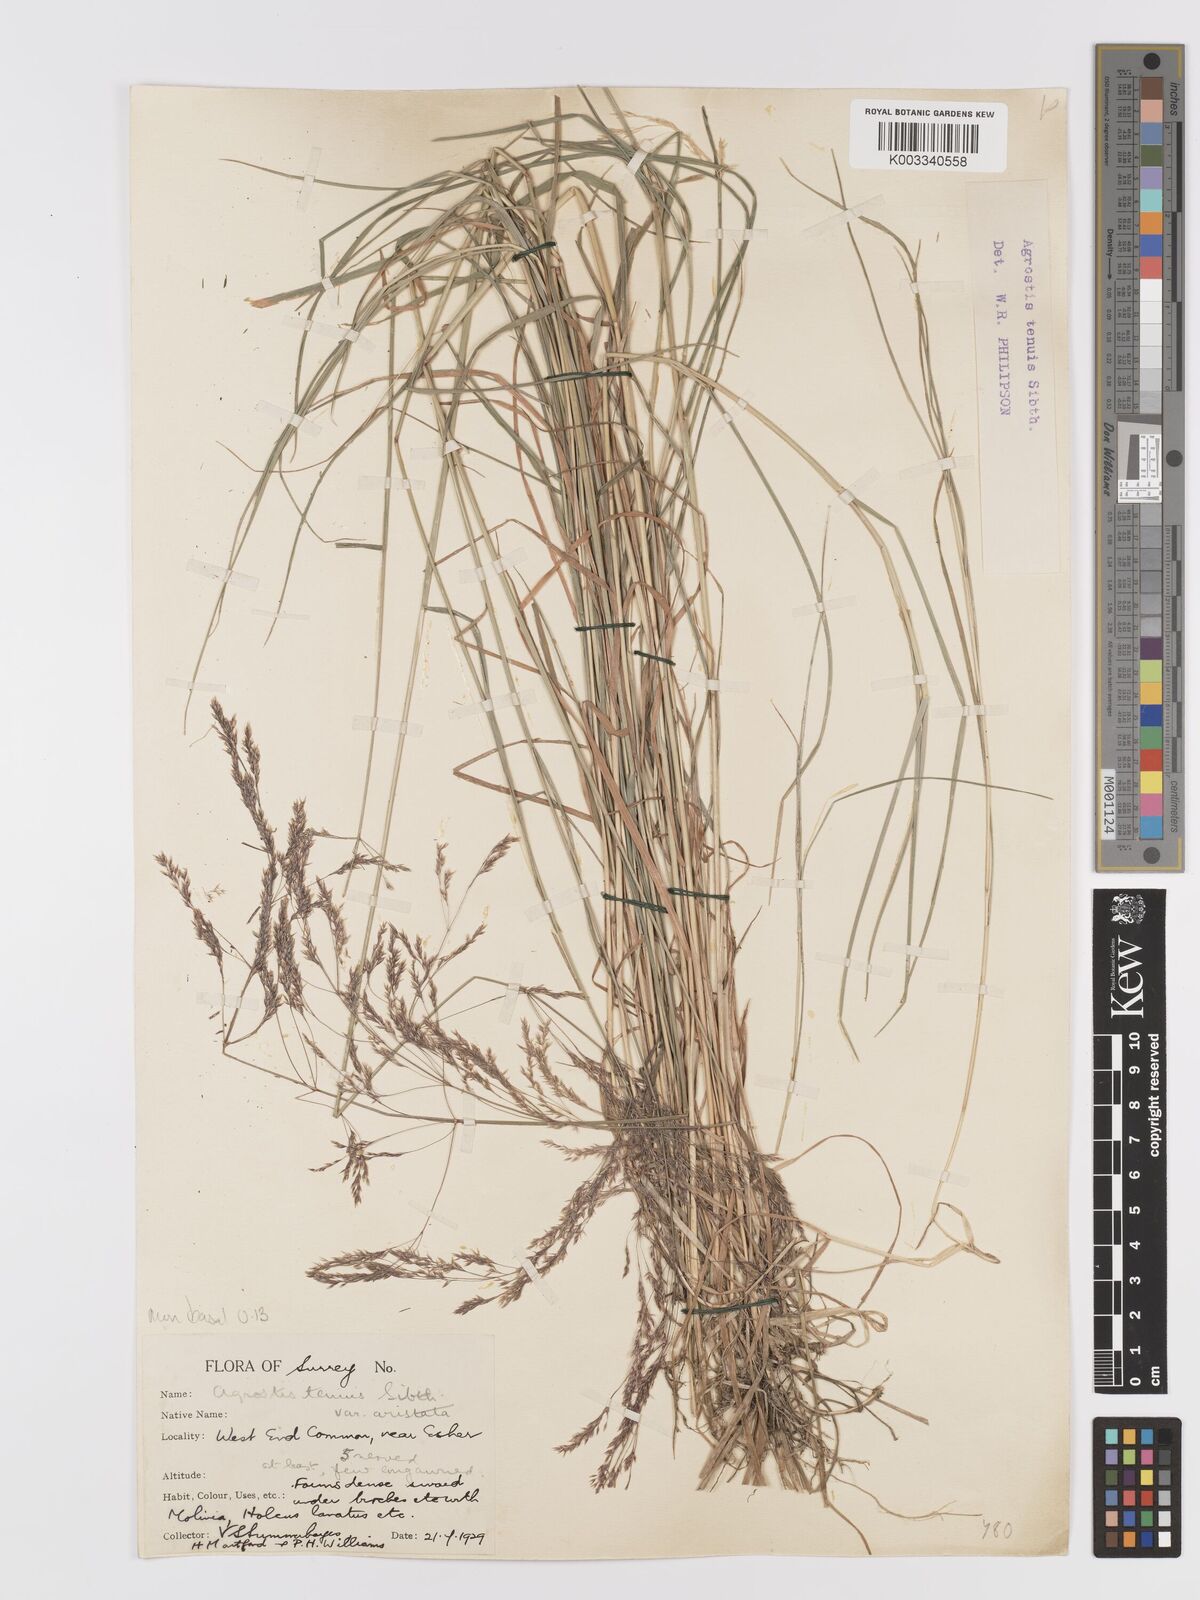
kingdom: Plantae
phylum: Tracheophyta
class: Liliopsida
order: Poales
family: Poaceae
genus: Agrostis
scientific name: Agrostis capillaris
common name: Colonial bentgrass
